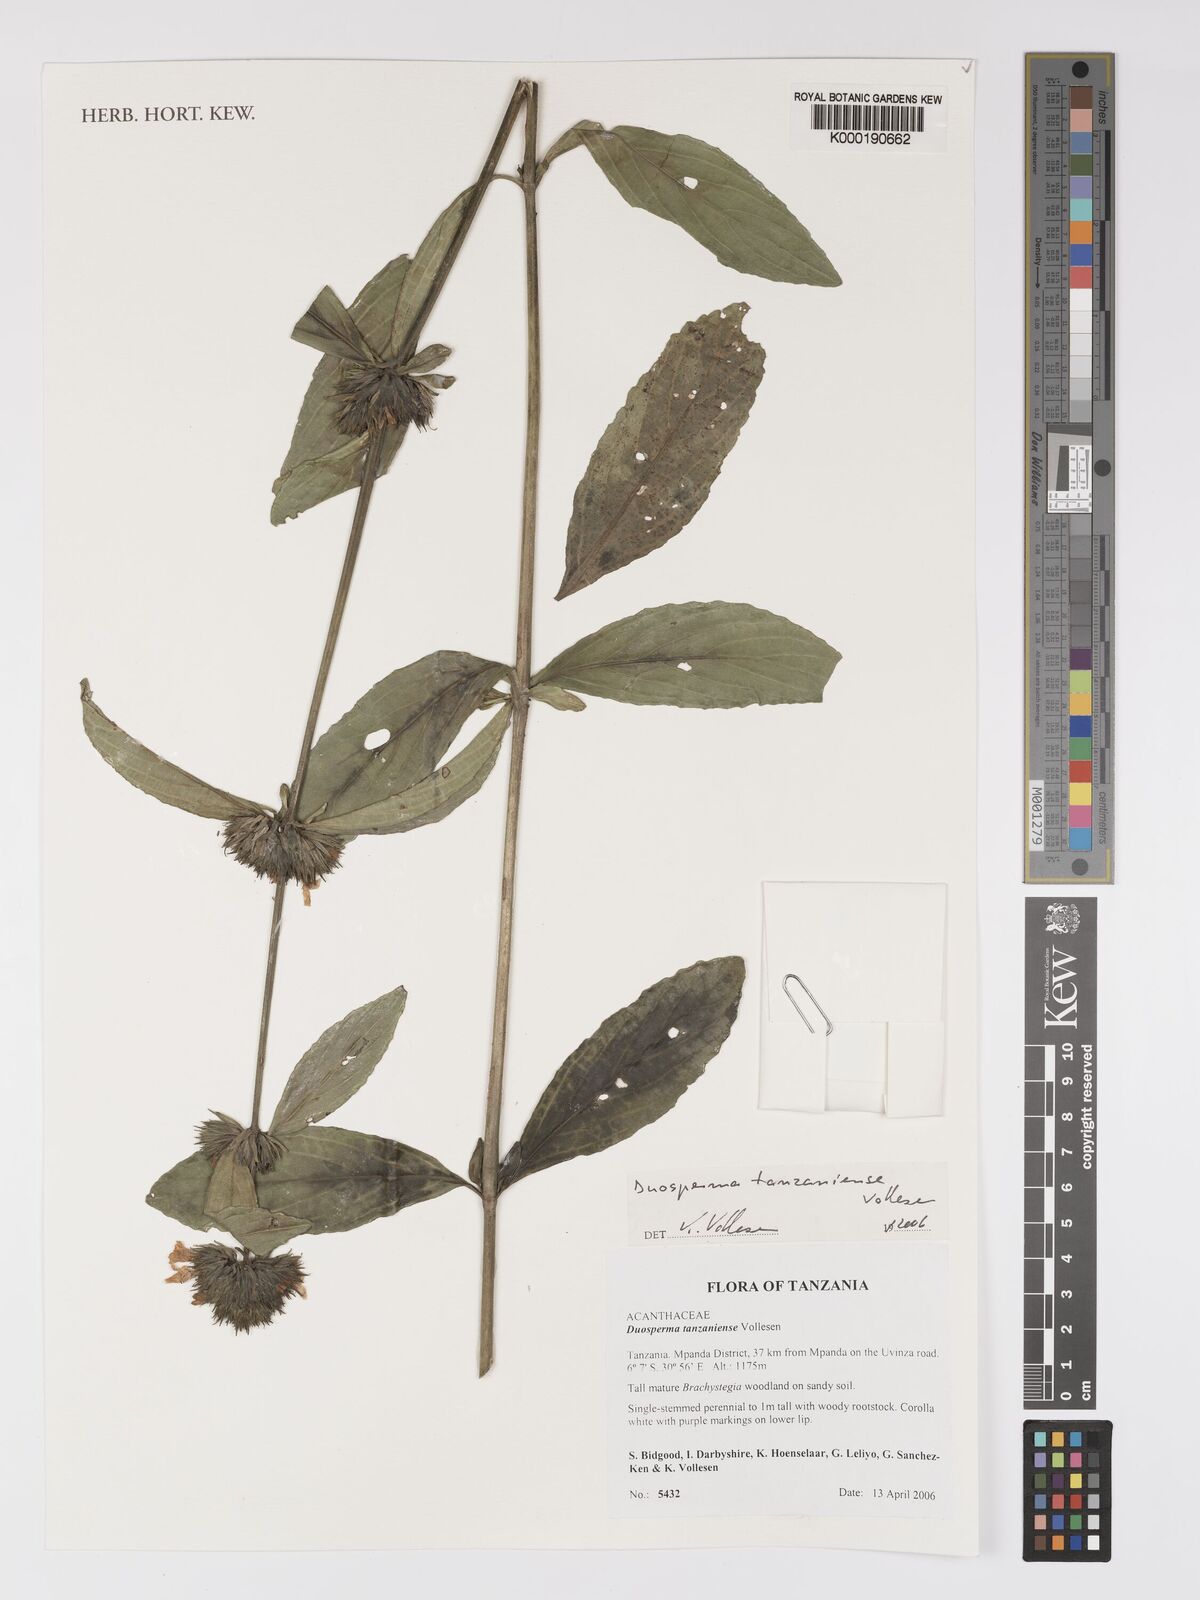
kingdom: Plantae
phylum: Tracheophyta
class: Magnoliopsida
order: Lamiales
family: Acanthaceae
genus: Duosperma
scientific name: Duosperma tanzaniense
